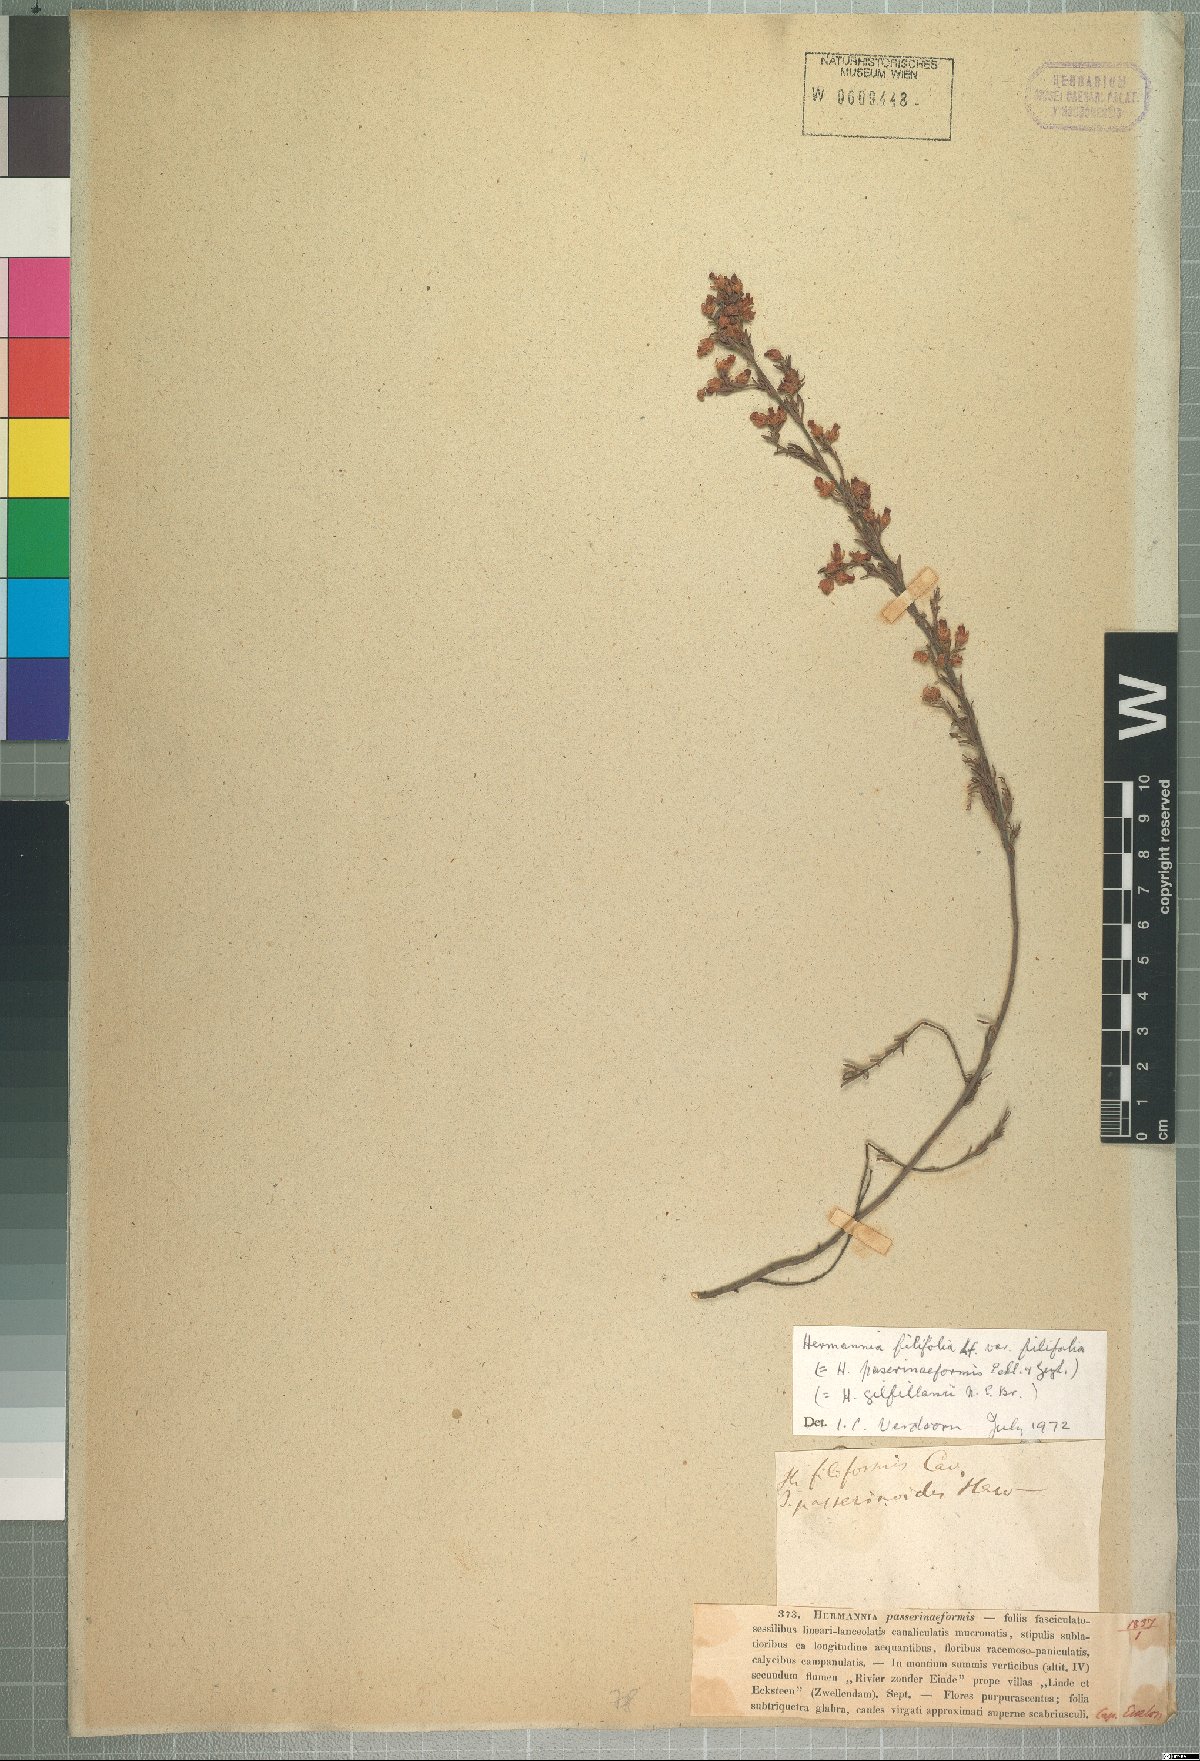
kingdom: Plantae
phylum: Tracheophyta
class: Magnoliopsida
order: Malvales
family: Malvaceae
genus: Hermannia
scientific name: Hermannia filifolia
